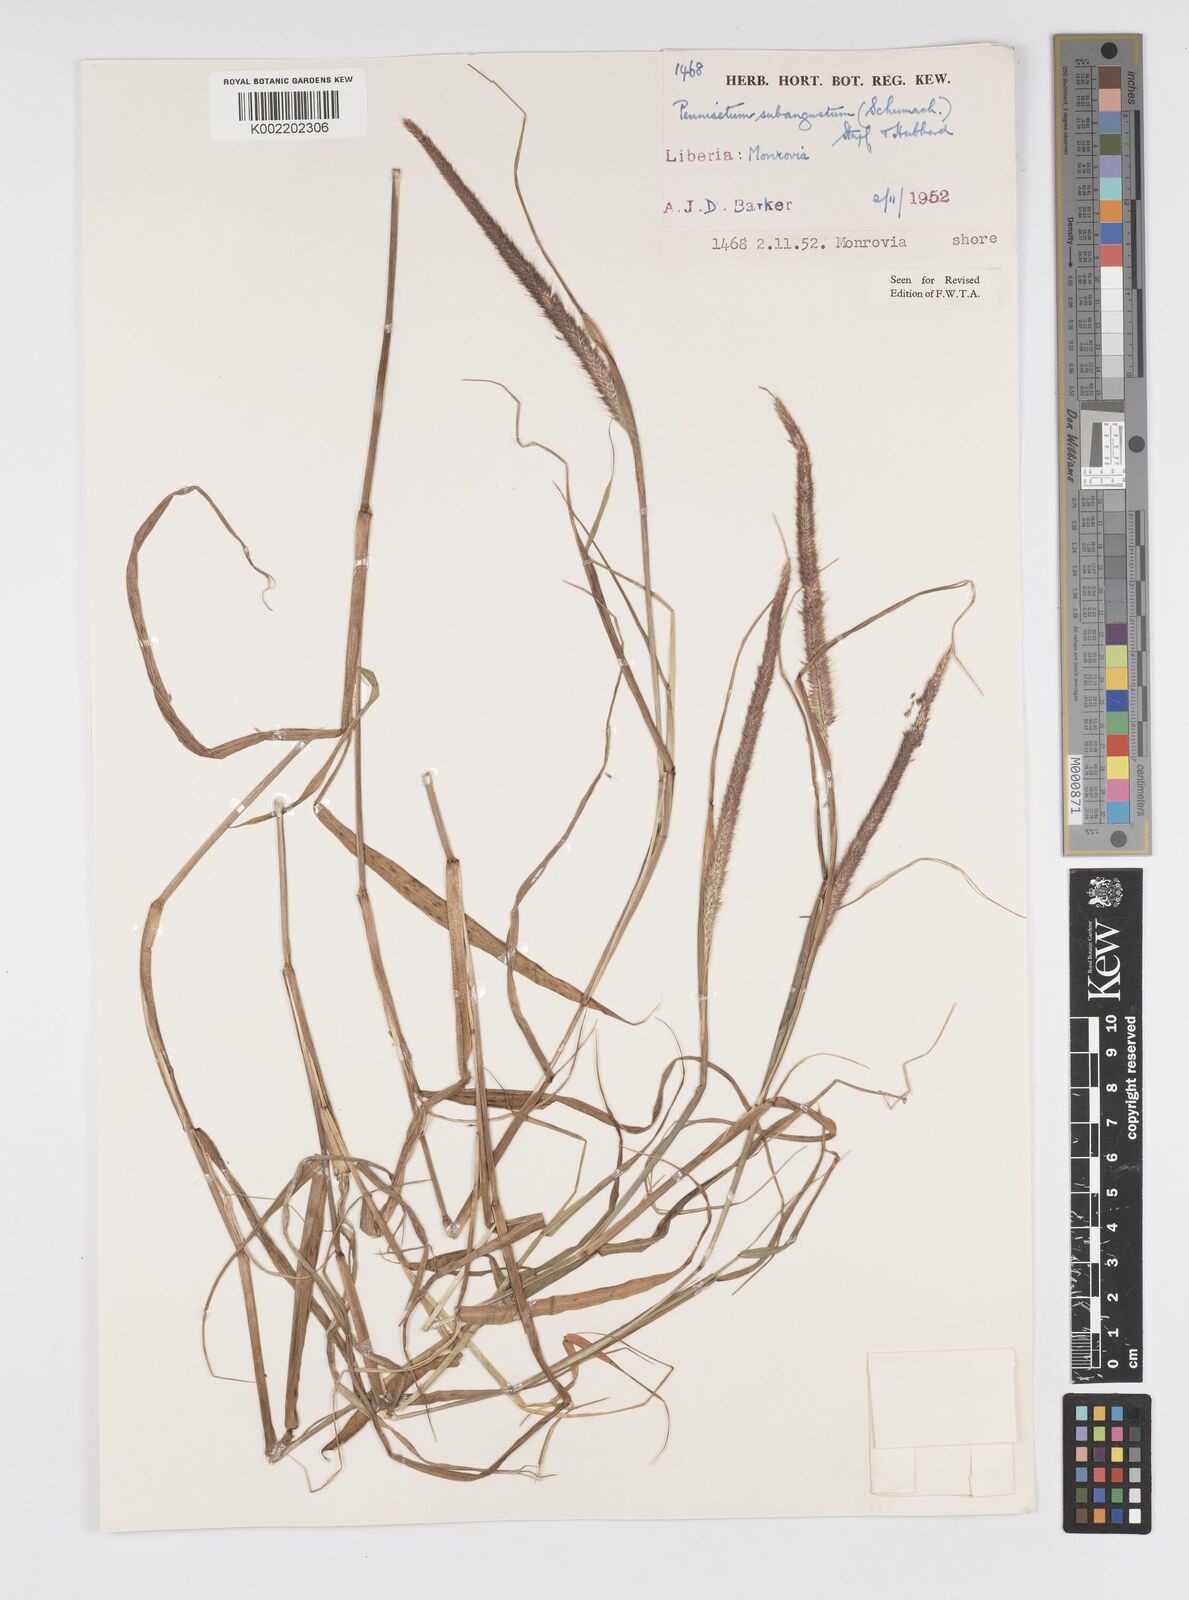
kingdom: Plantae
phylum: Tracheophyta
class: Liliopsida
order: Poales
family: Poaceae
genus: Setaria
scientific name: Setaria parviflora
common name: Knotroot bristle-grass
